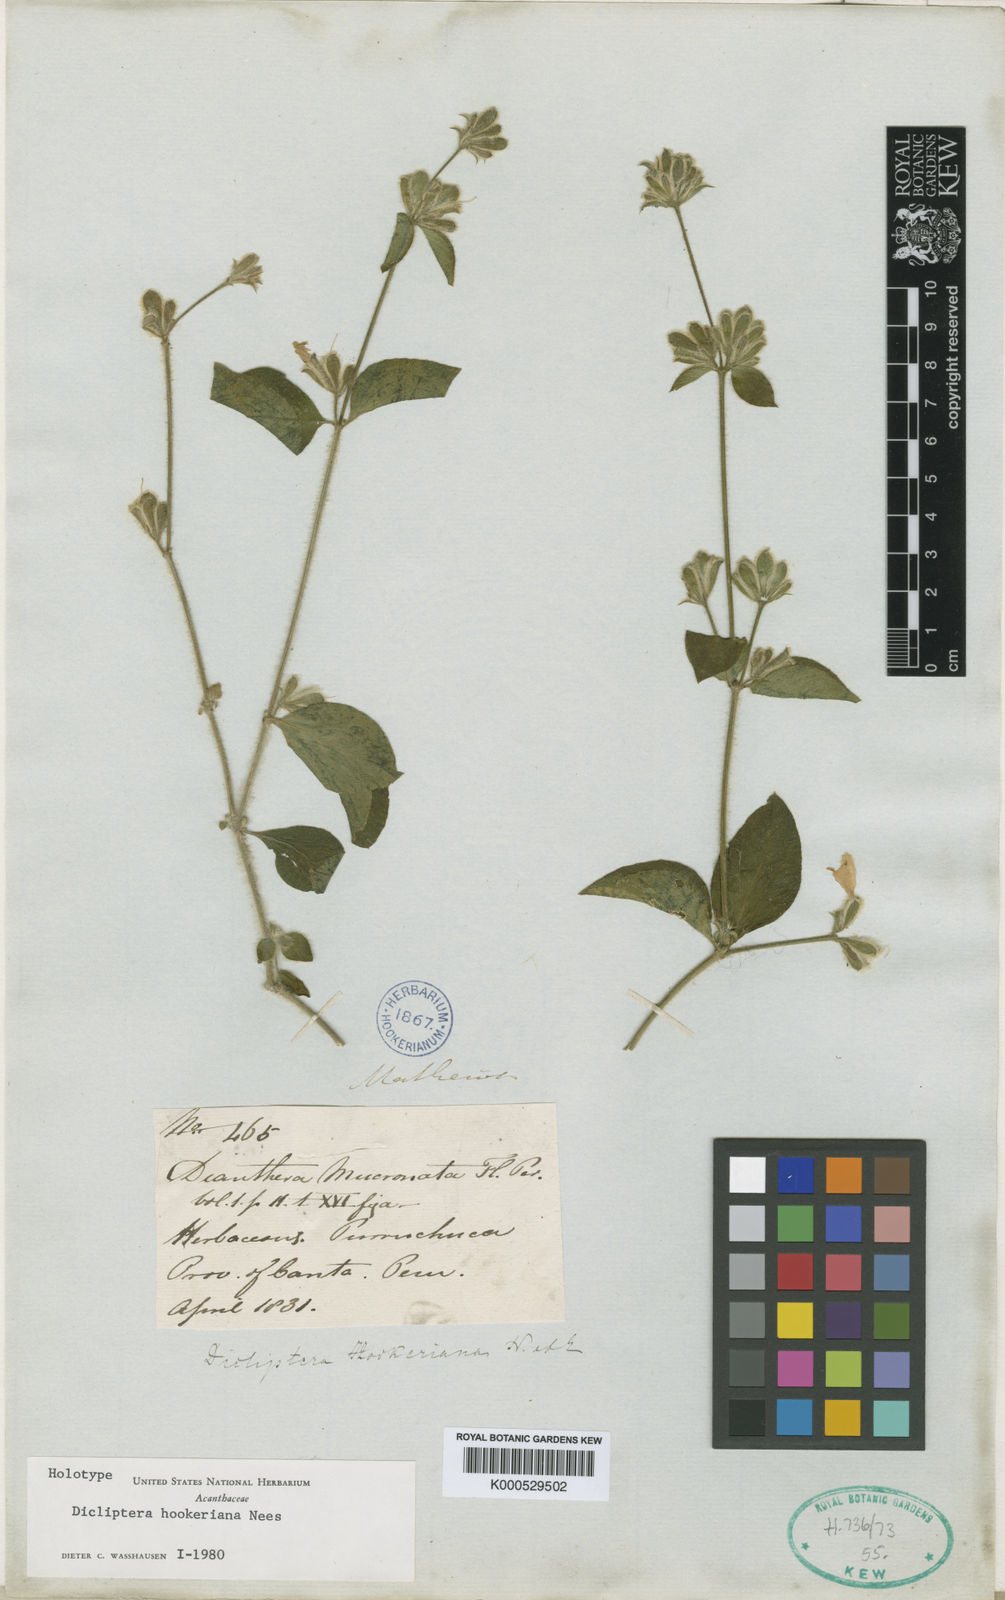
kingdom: Plantae
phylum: Tracheophyta
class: Magnoliopsida
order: Lamiales
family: Acanthaceae
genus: Dicliptera
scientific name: Dicliptera hookeriana
